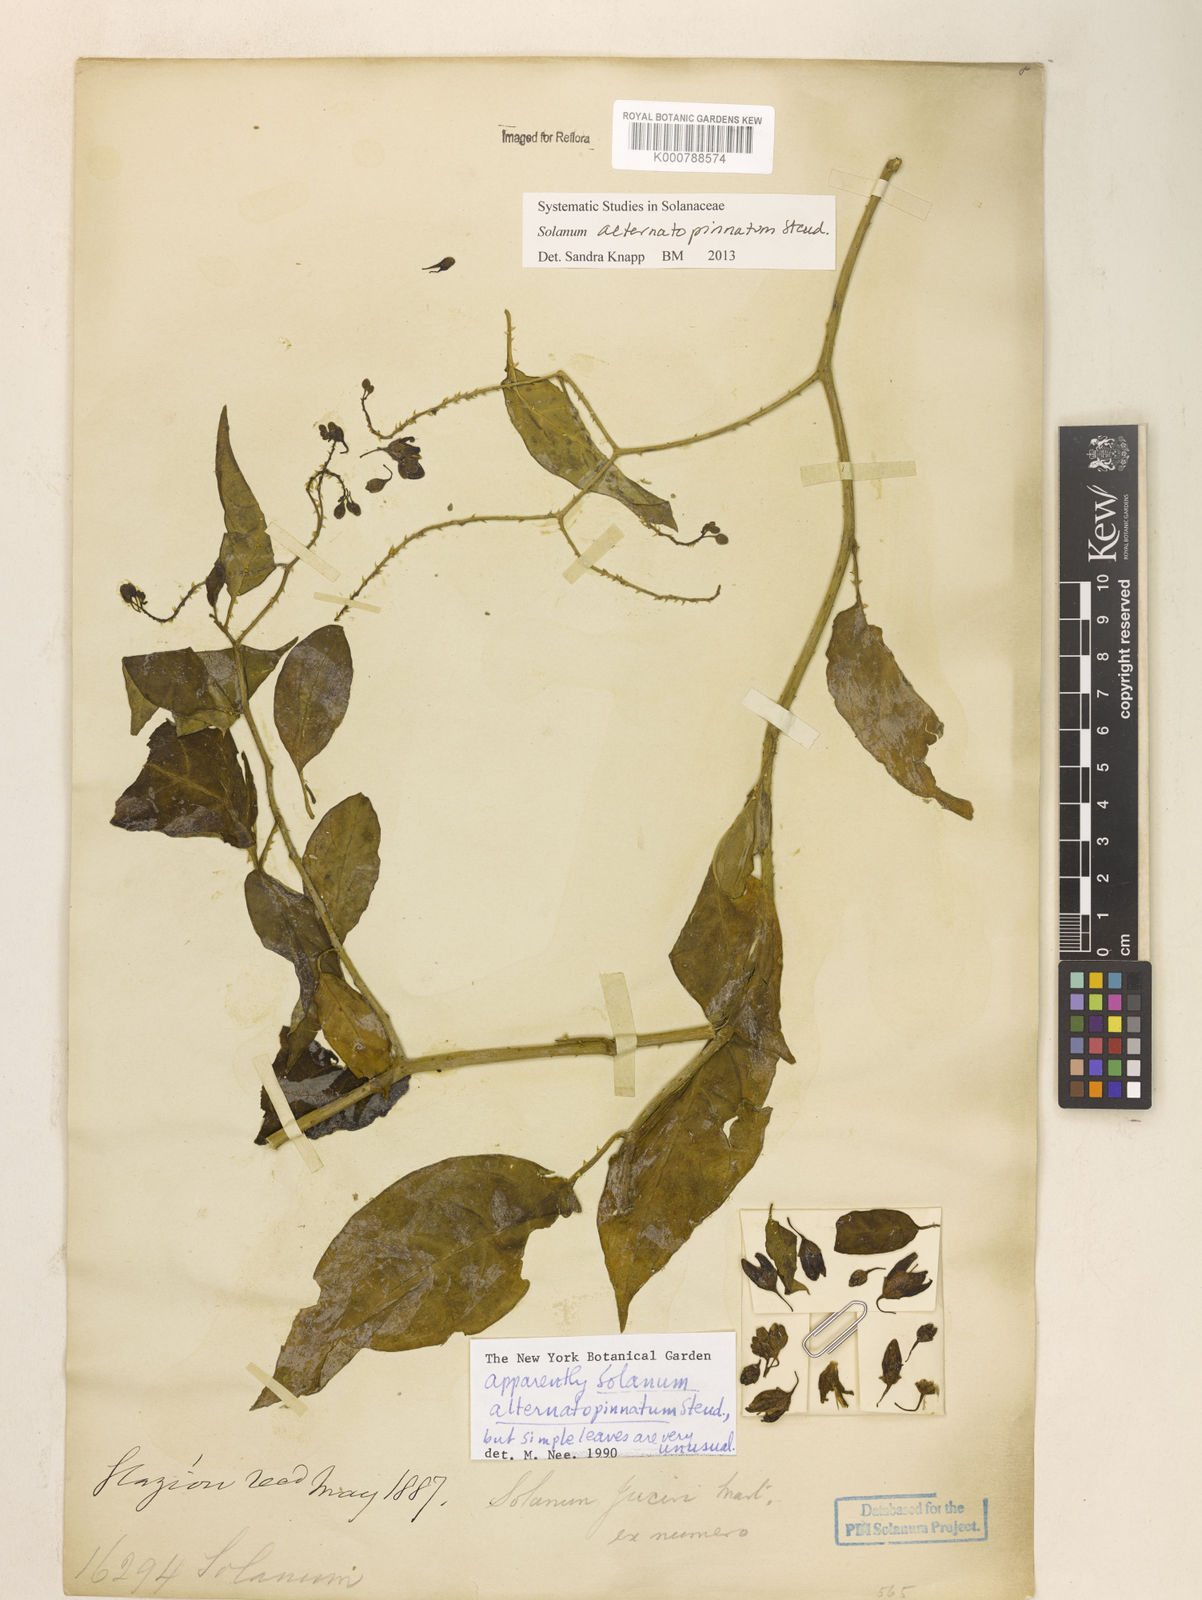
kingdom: Plantae
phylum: Tracheophyta
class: Magnoliopsida
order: Solanales
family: Solanaceae
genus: Solanum
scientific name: Solanum alternatopinnatum
